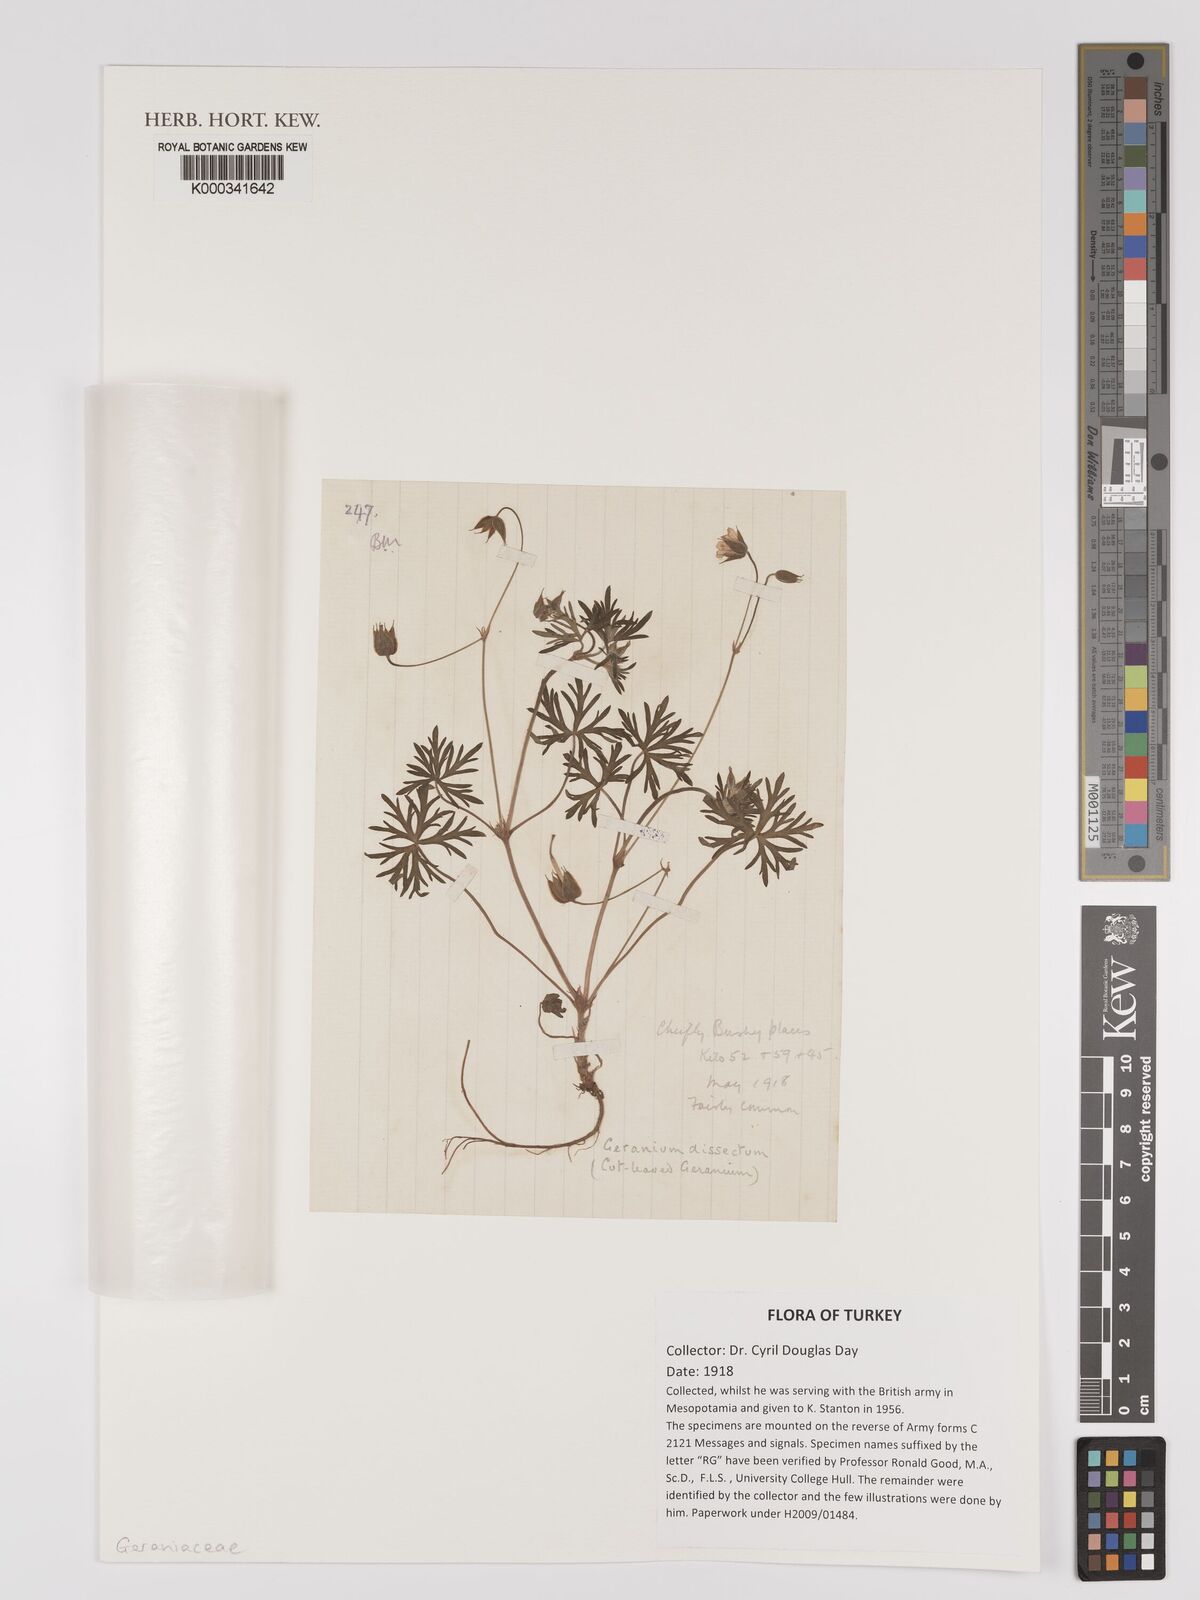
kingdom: Plantae
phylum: Tracheophyta
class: Magnoliopsida
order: Geraniales
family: Geraniaceae
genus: Geranium
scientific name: Geranium dissectum
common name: Cut-leaved crane's-bill
